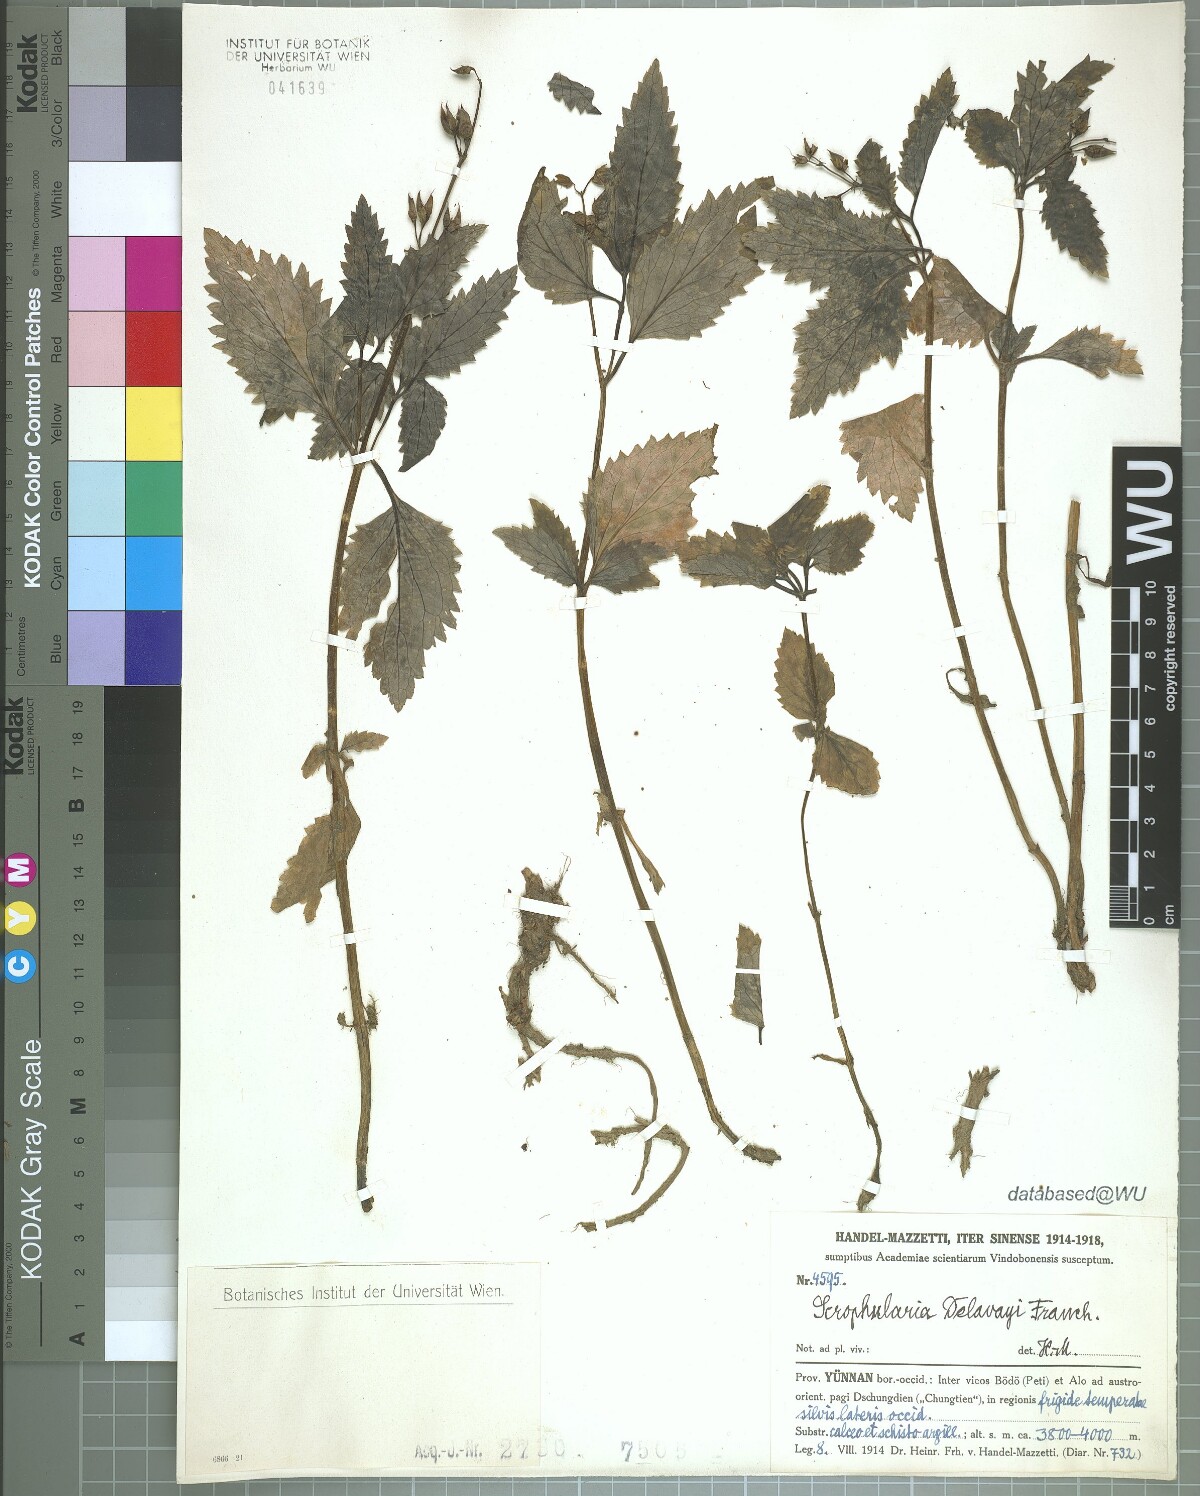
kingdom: Plantae
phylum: Tracheophyta
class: Magnoliopsida
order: Lamiales
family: Scrophulariaceae
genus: Scrophularia
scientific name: Scrophularia delavayi
